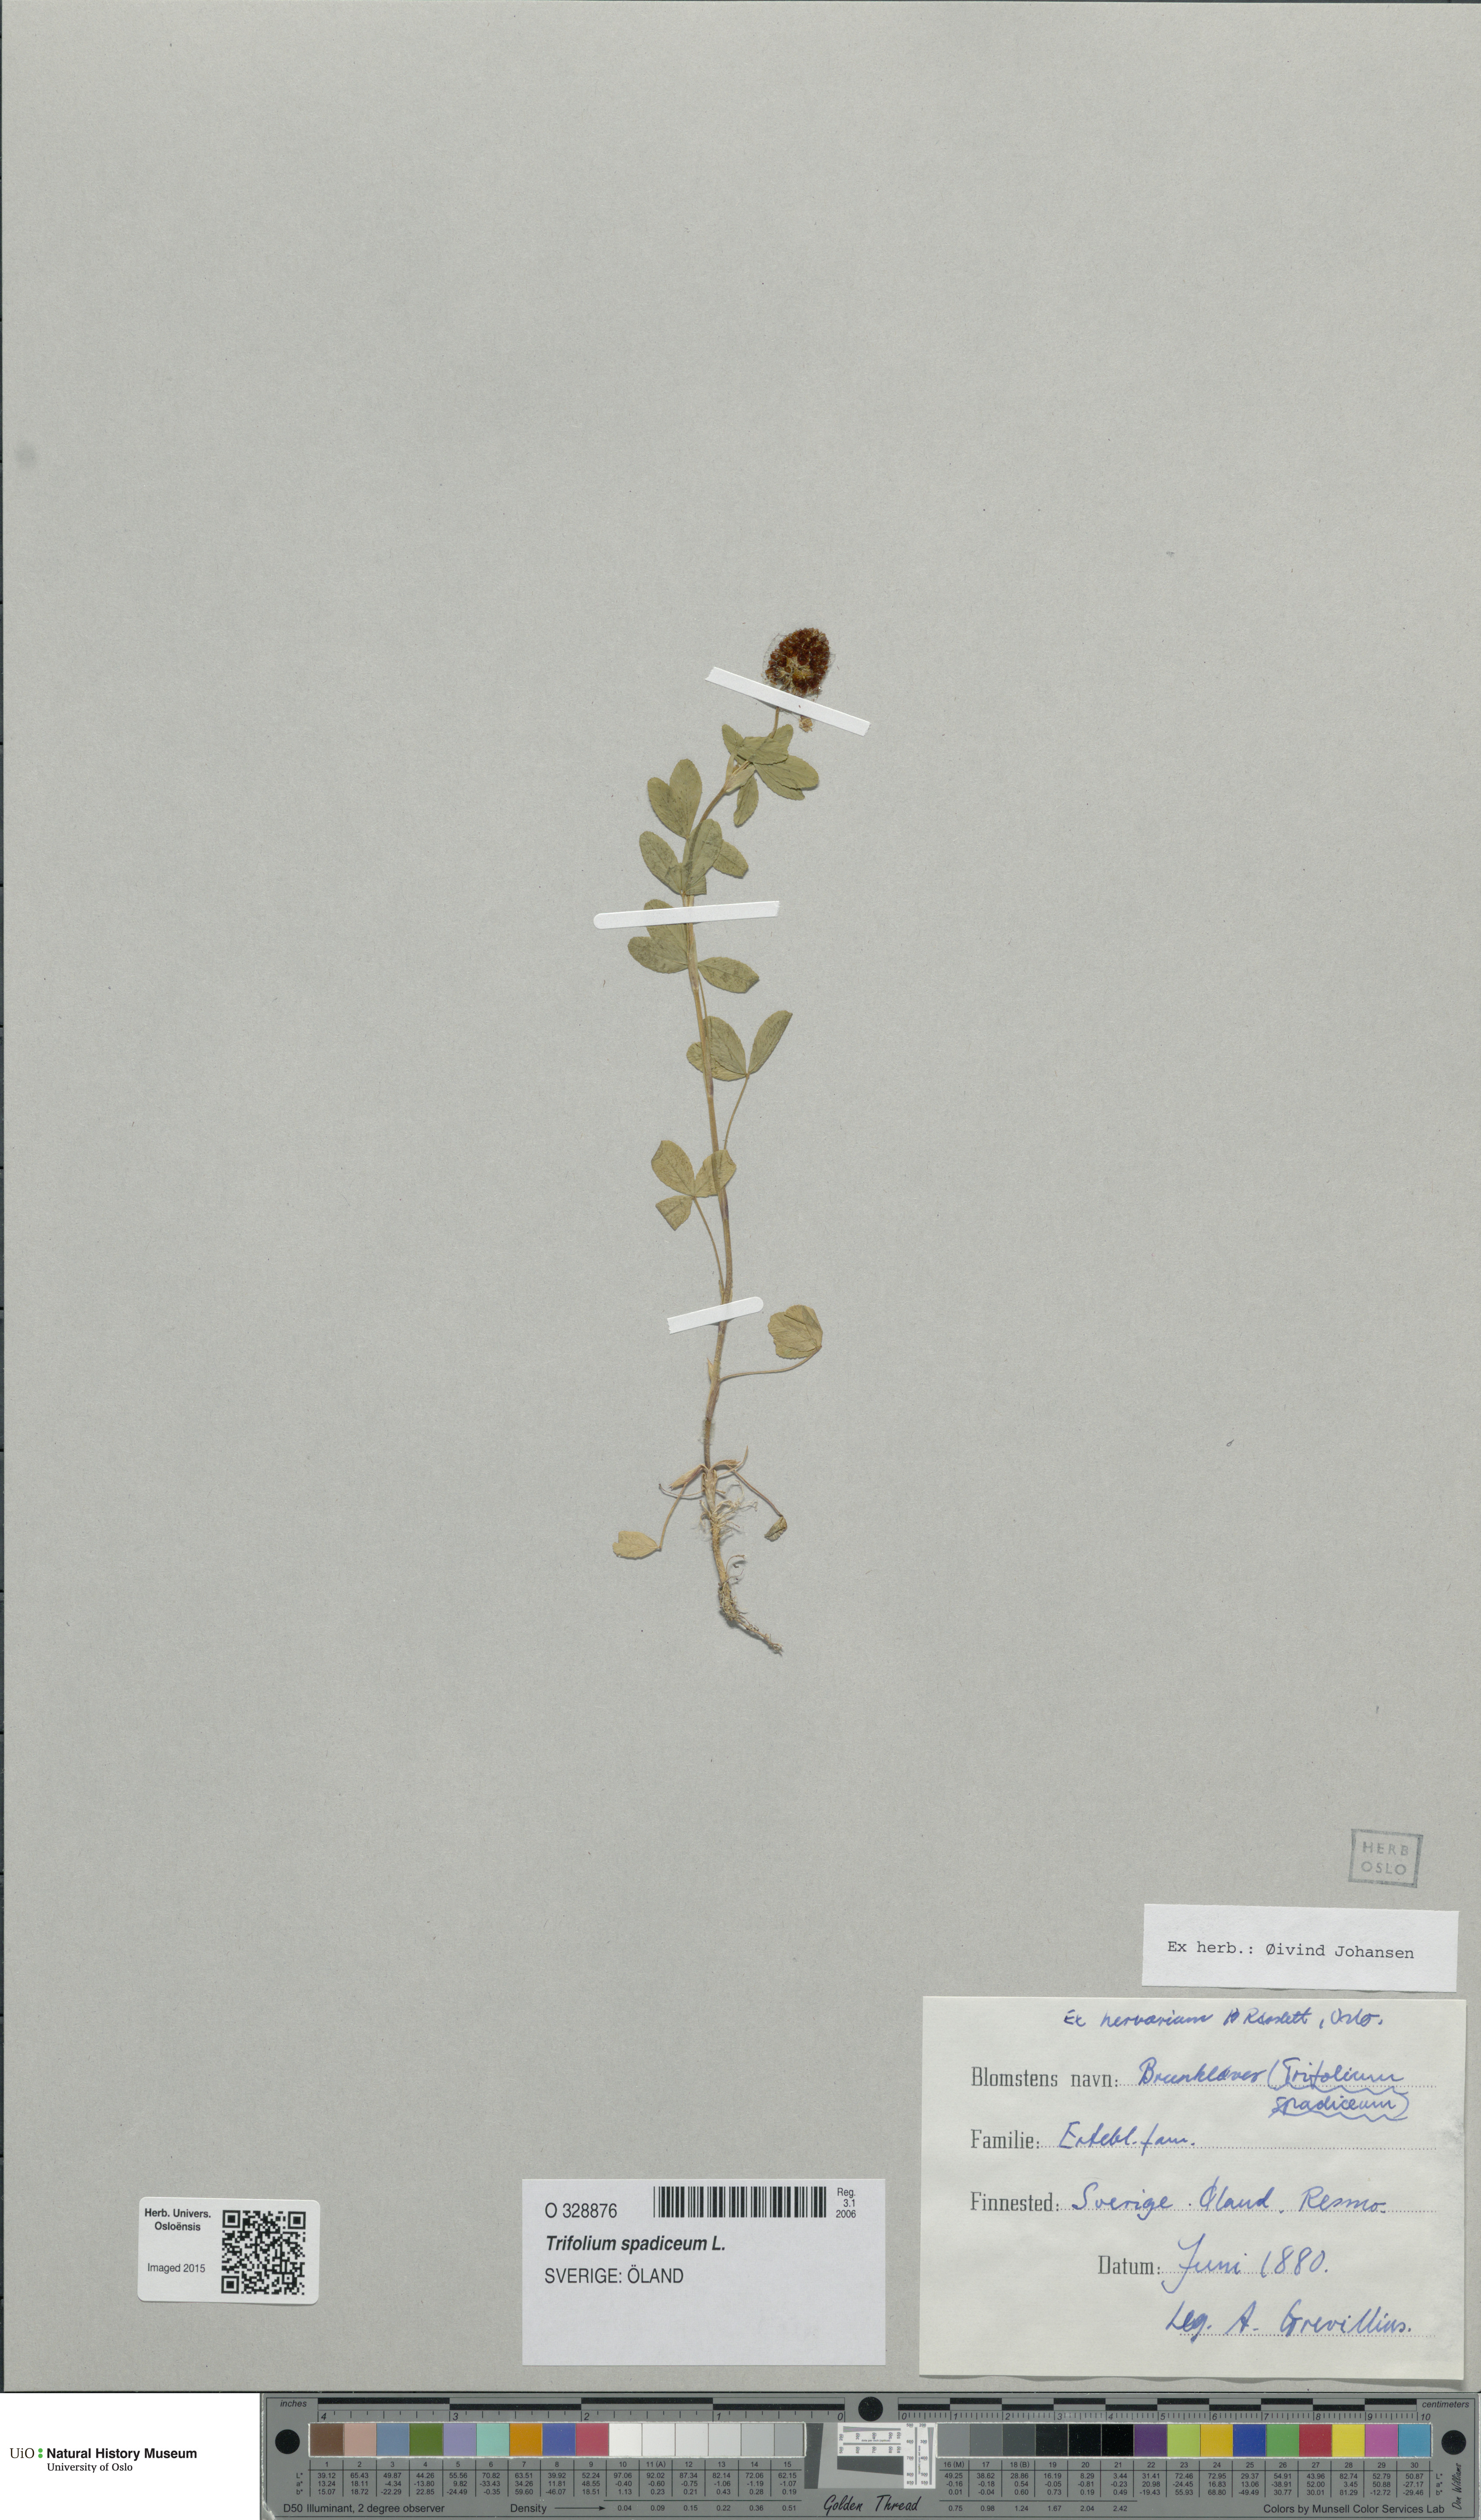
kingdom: Plantae
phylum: Tracheophyta
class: Magnoliopsida
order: Fabales
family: Fabaceae
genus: Trifolium
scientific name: Trifolium spadiceum
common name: Brown moor clover
